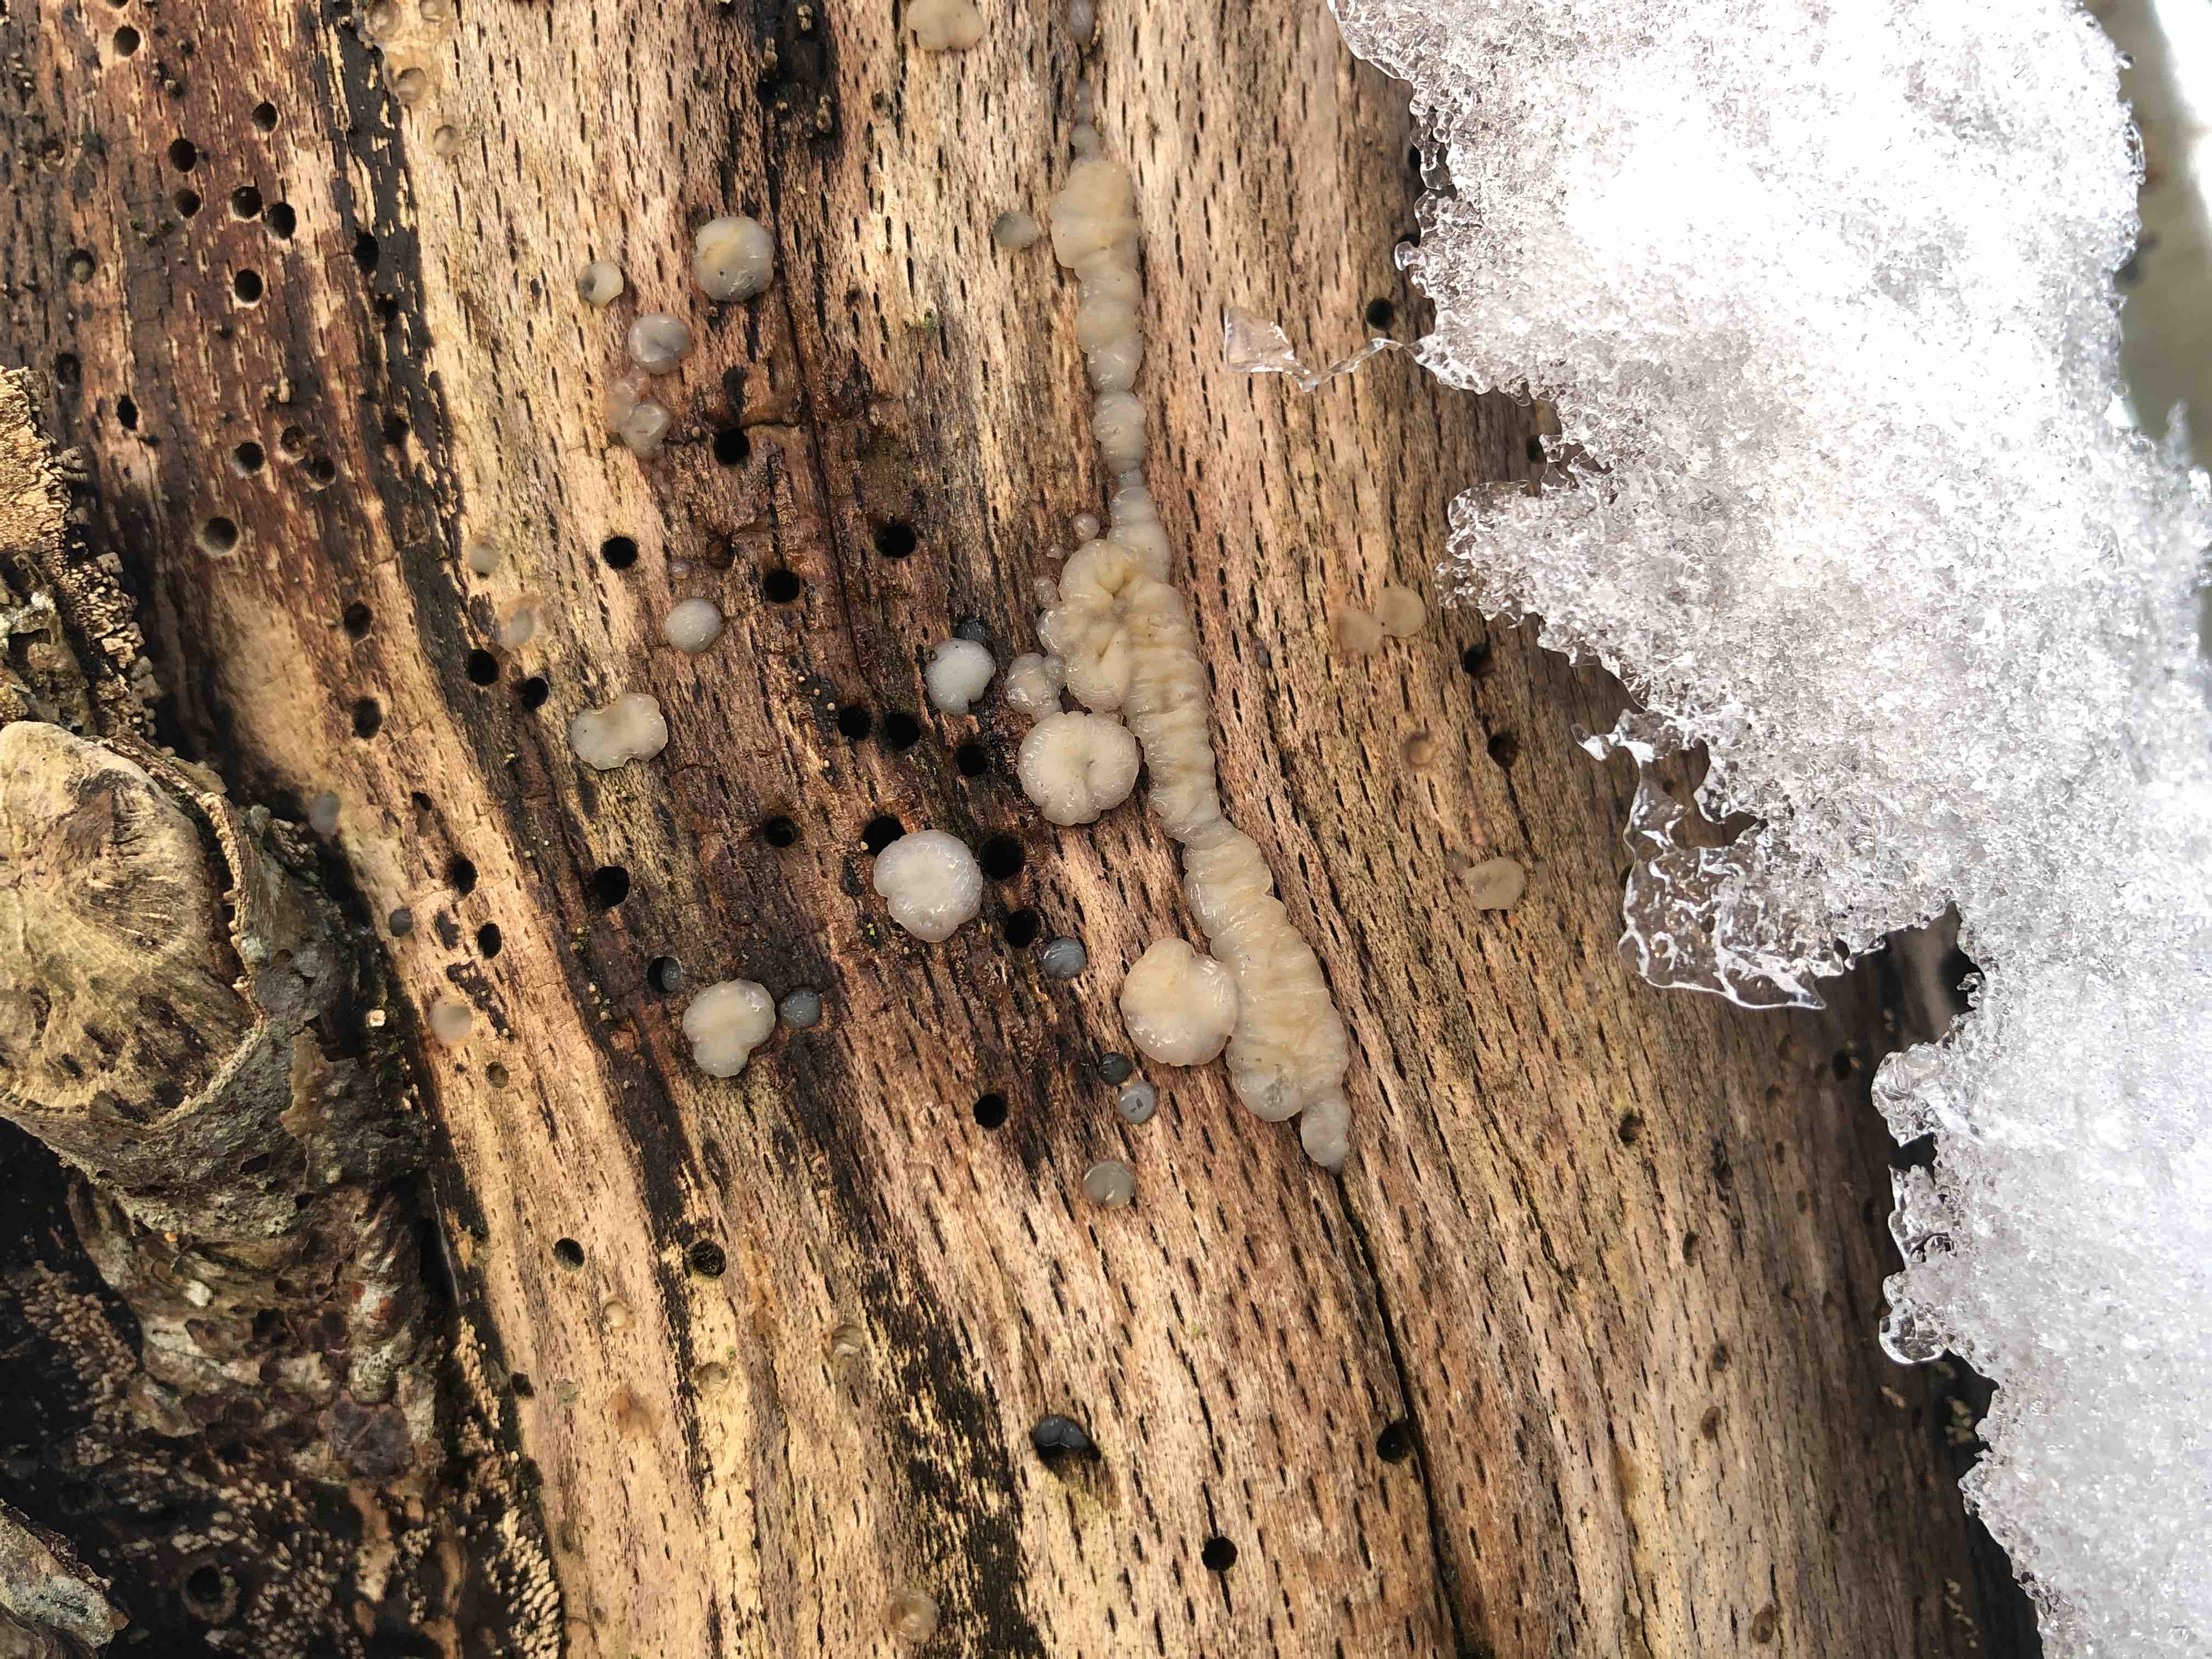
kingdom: Fungi
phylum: Basidiomycota
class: Agaricomycetes
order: Auriculariales
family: Auriculariaceae
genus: Exidia
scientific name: Exidia thuretiana
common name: hvidlig bævretop
